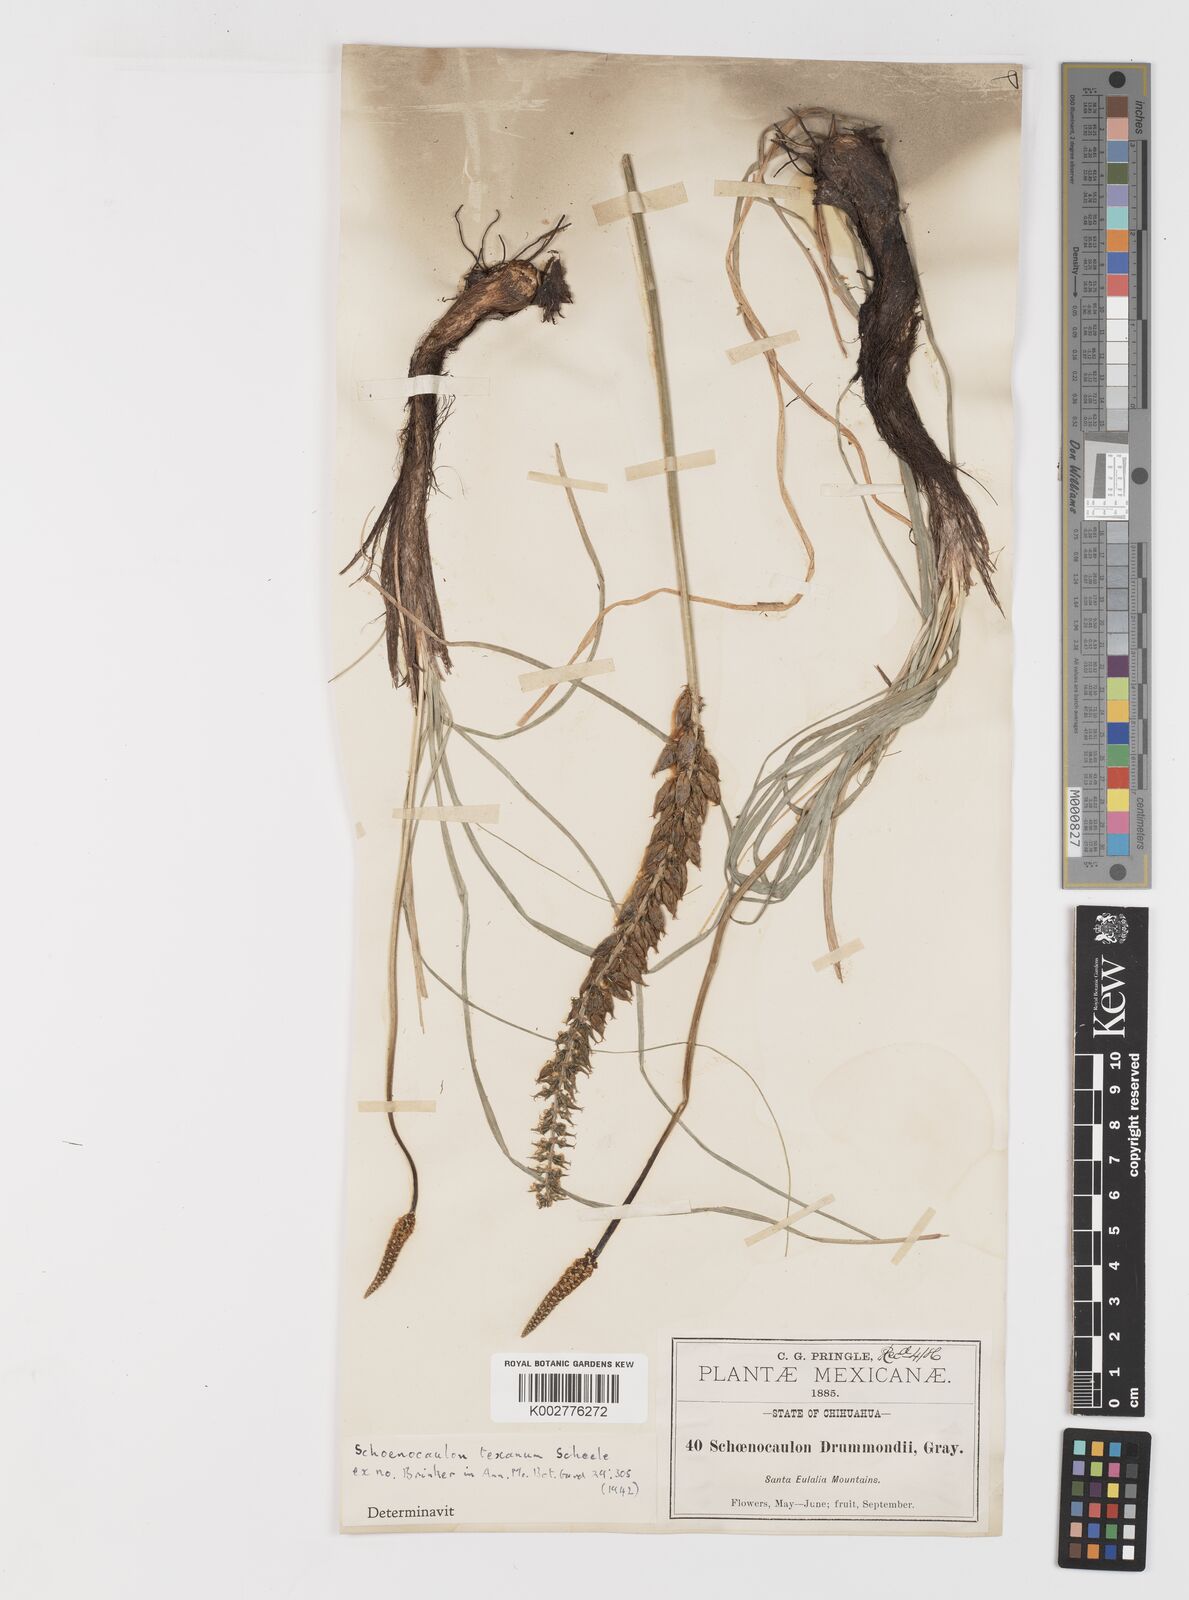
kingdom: Plantae
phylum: Tracheophyta
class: Liliopsida
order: Liliales
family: Melanthiaceae
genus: Schoenocaulon
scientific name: Schoenocaulon texanum
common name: Texas feather-shank
